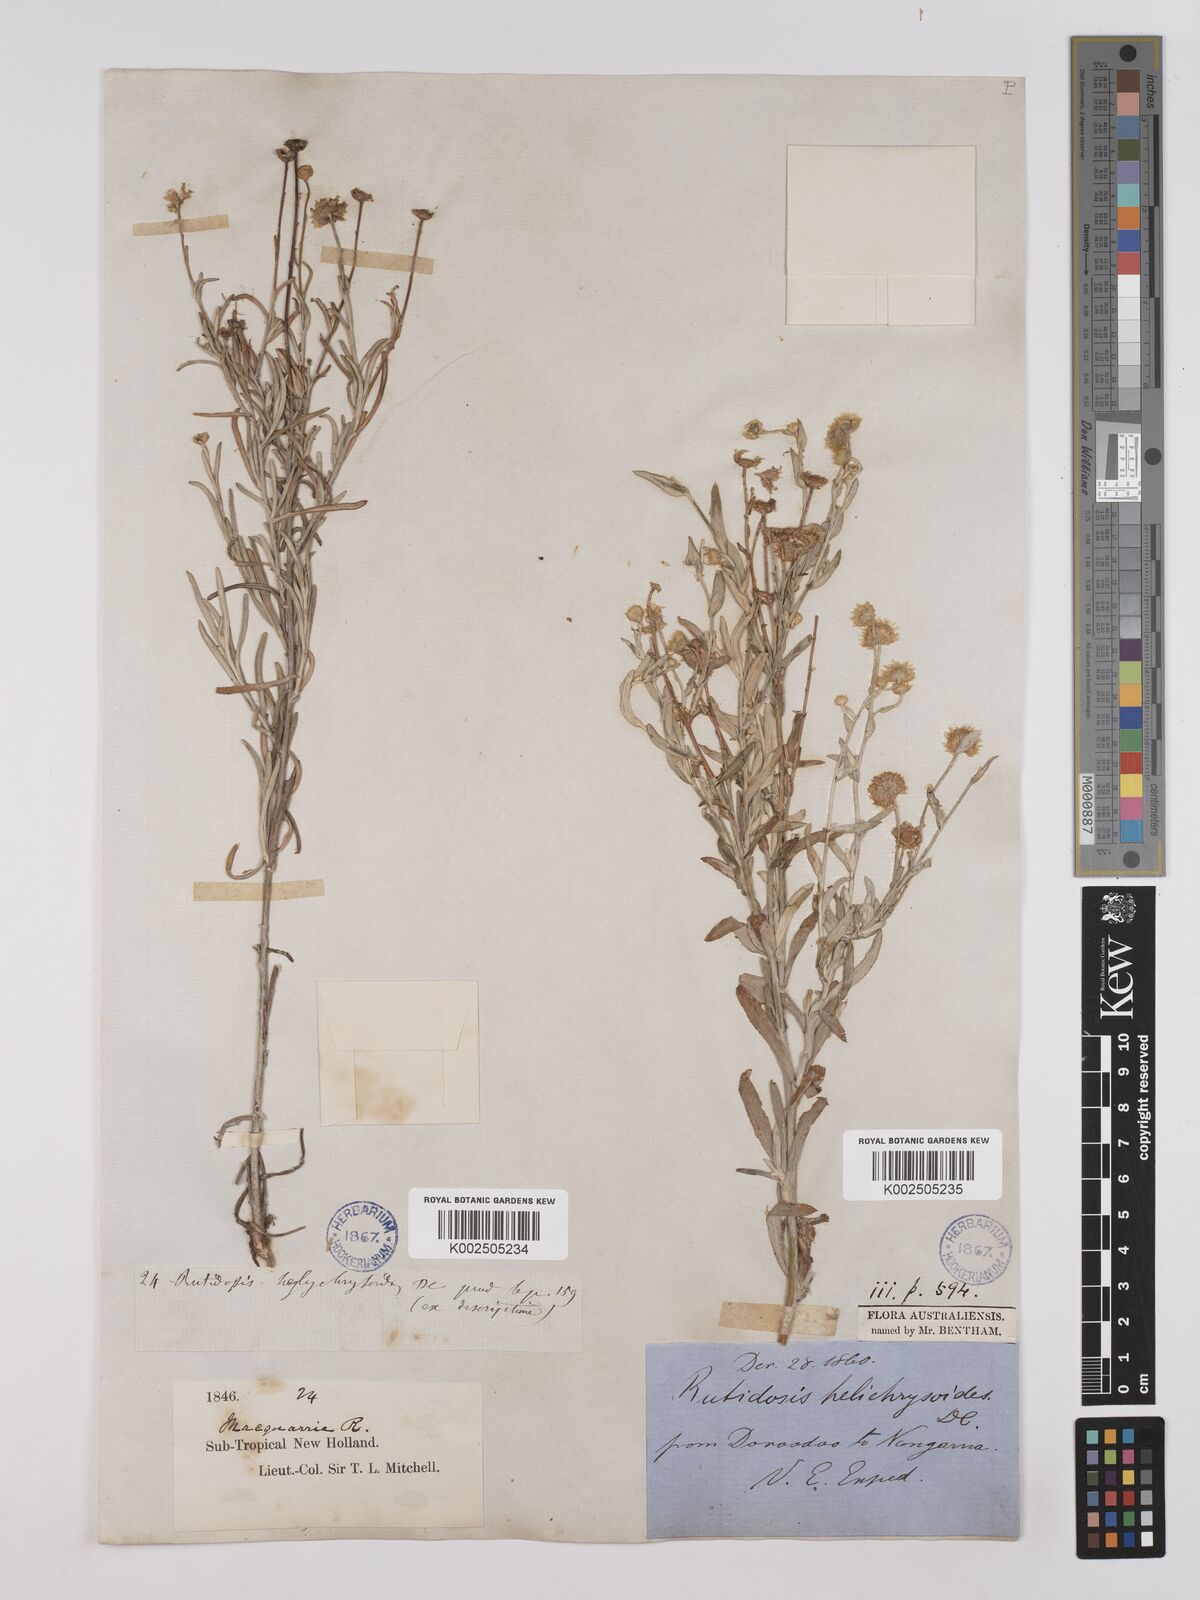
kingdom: Plantae
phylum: Tracheophyta
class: Magnoliopsida
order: Asterales
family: Asteraceae
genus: Rutidosis
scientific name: Rutidosis helichrysoides
